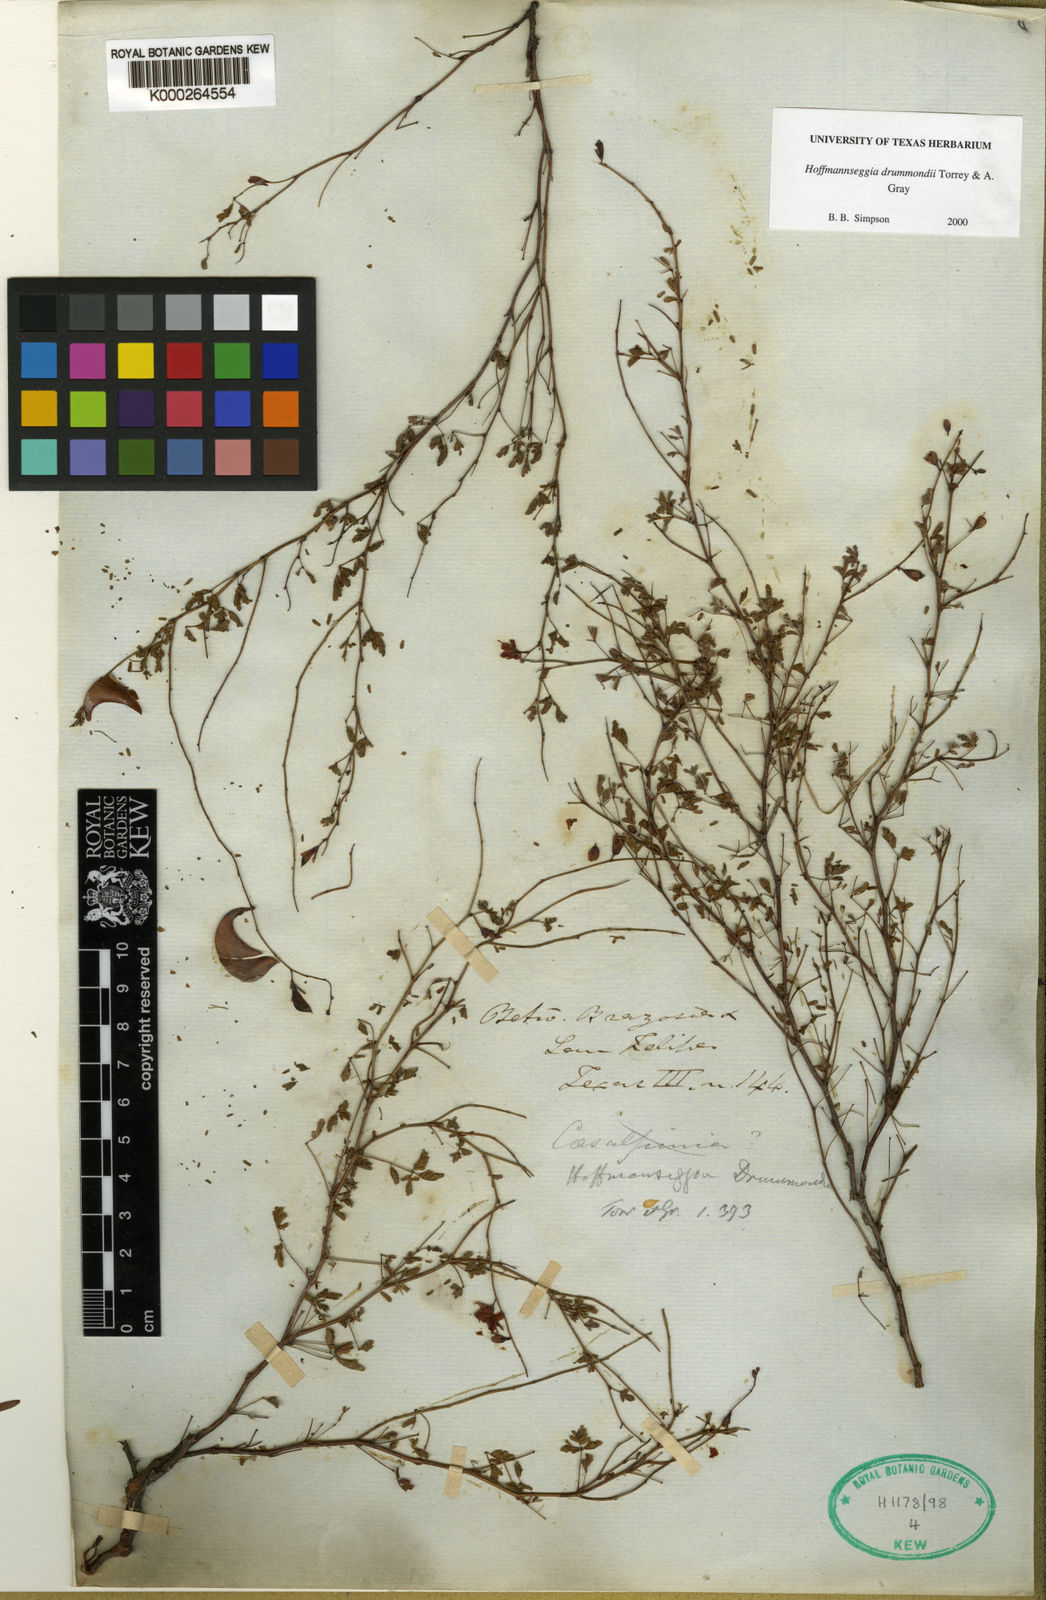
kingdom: Plantae
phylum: Tracheophyta
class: Magnoliopsida
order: Fabales
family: Fabaceae
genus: Hoffmannseggia
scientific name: Hoffmannseggia drummondii
